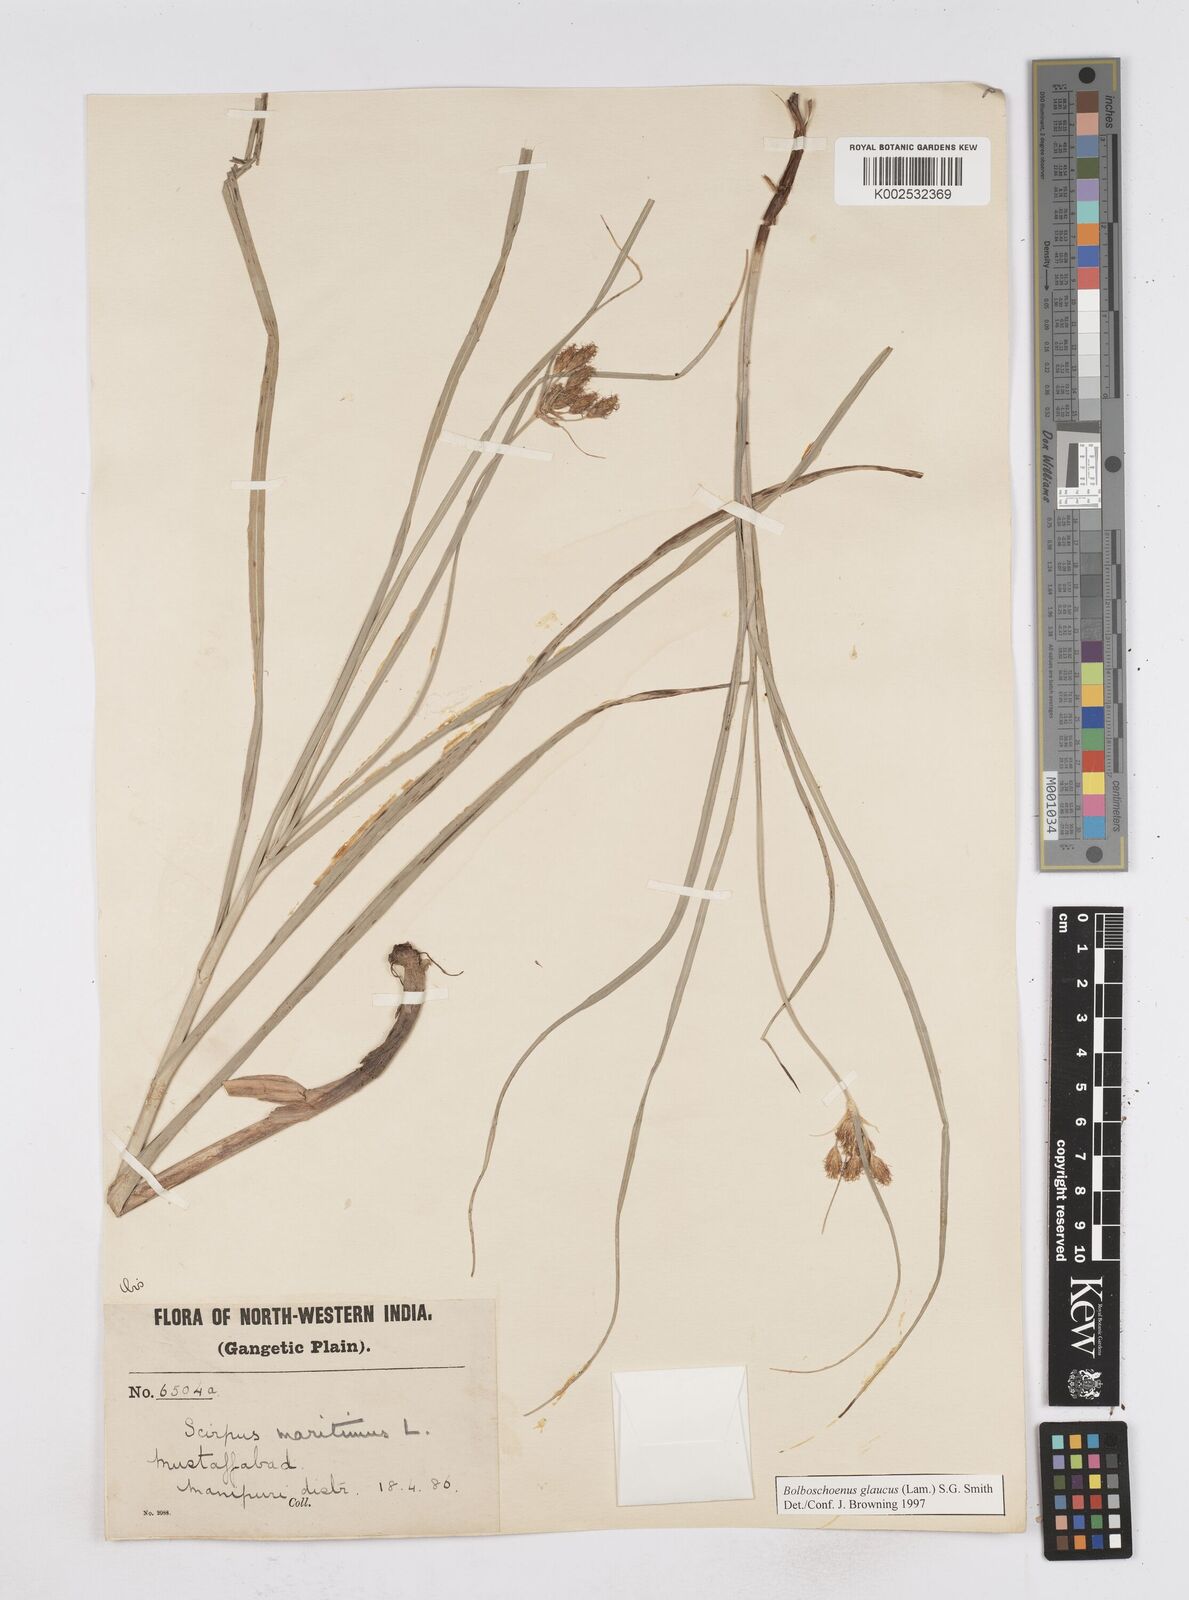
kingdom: Plantae
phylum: Tracheophyta
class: Liliopsida
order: Poales
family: Cyperaceae
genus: Bolboschoenus
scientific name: Bolboschoenus maritimus
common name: Sea club-rush
